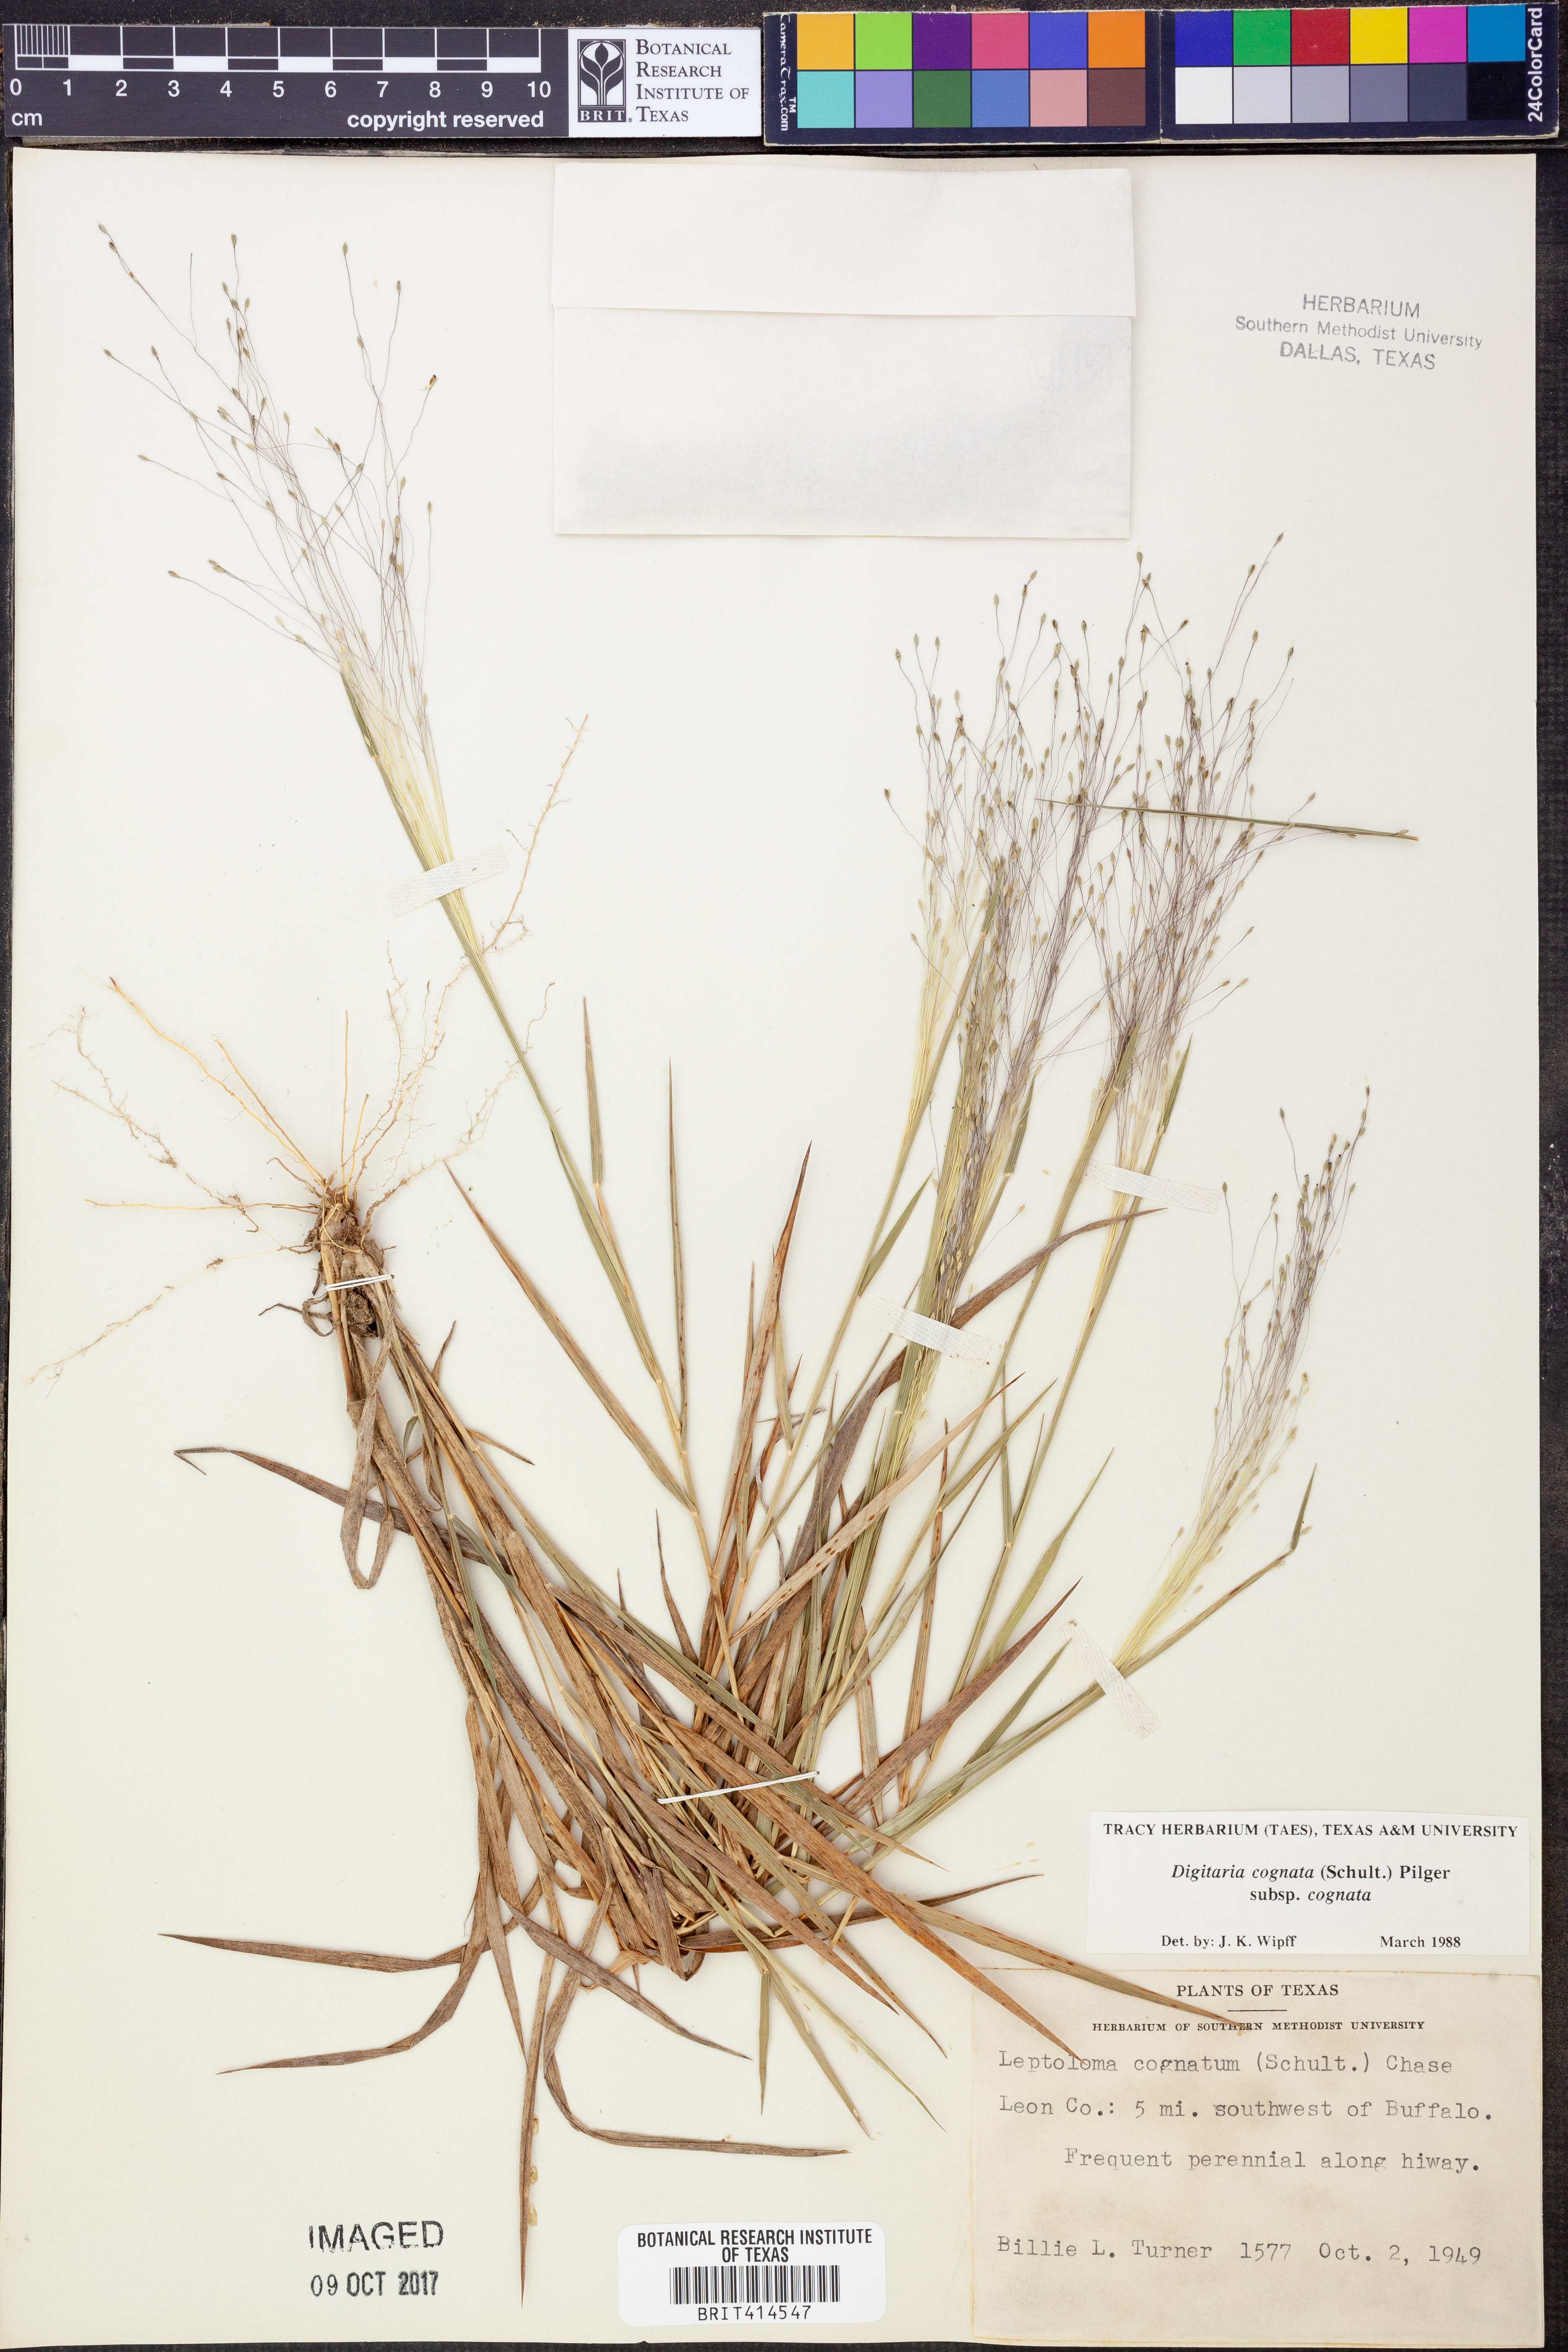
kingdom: Plantae
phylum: Tracheophyta
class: Liliopsida
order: Poales
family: Poaceae
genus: Digitaria
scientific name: Digitaria cognata
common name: Fall witchgrass
